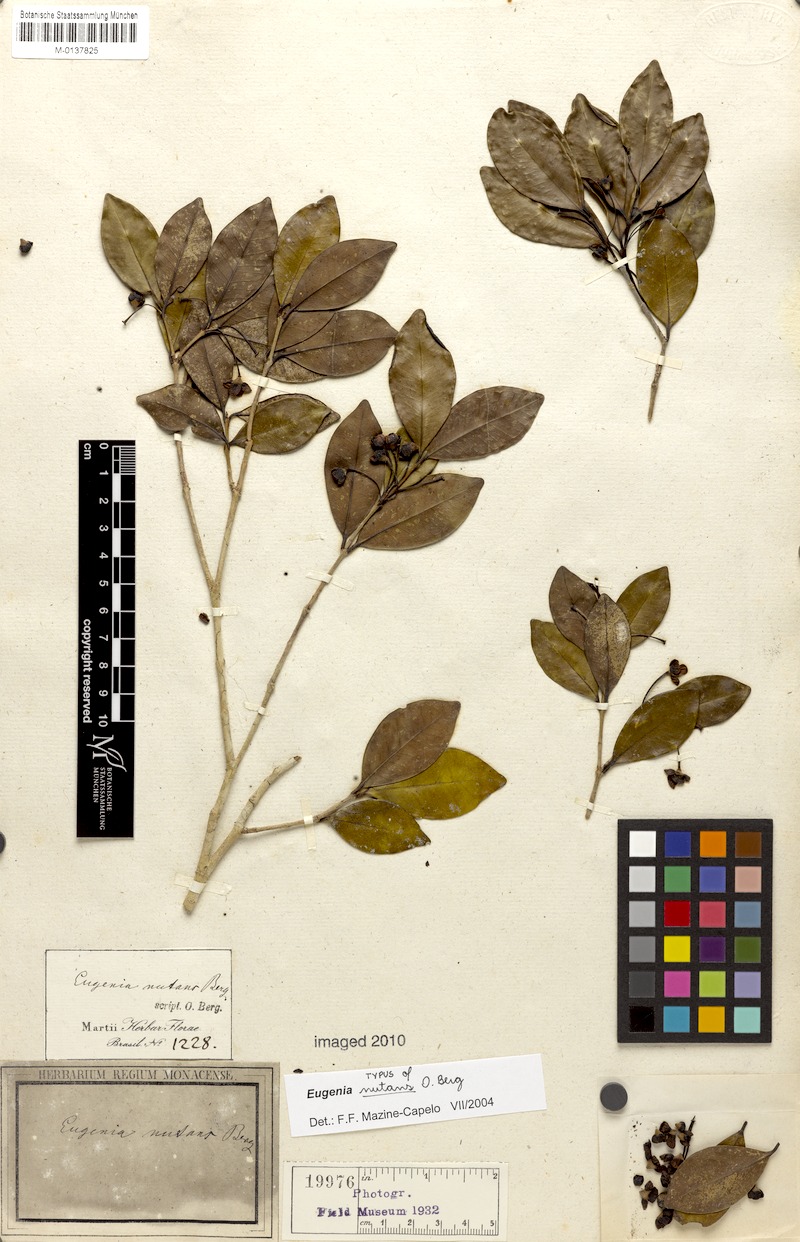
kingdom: Plantae
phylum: Tracheophyta
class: Magnoliopsida
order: Myrtales
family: Myrtaceae
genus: Eugenia
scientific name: Eugenia nutans
